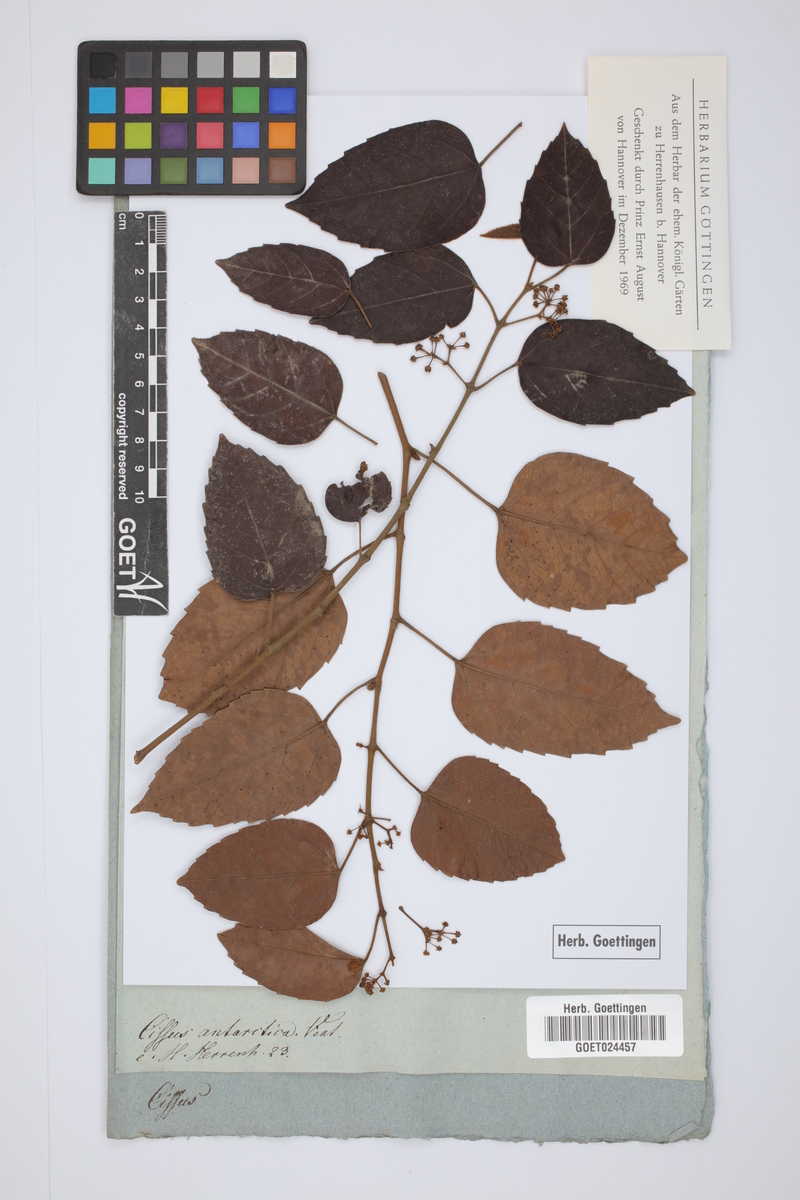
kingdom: Plantae
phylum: Tracheophyta
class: Magnoliopsida
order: Vitales
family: Vitaceae
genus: Cissus
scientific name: Cissus antarctica
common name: Kangaroo vine
